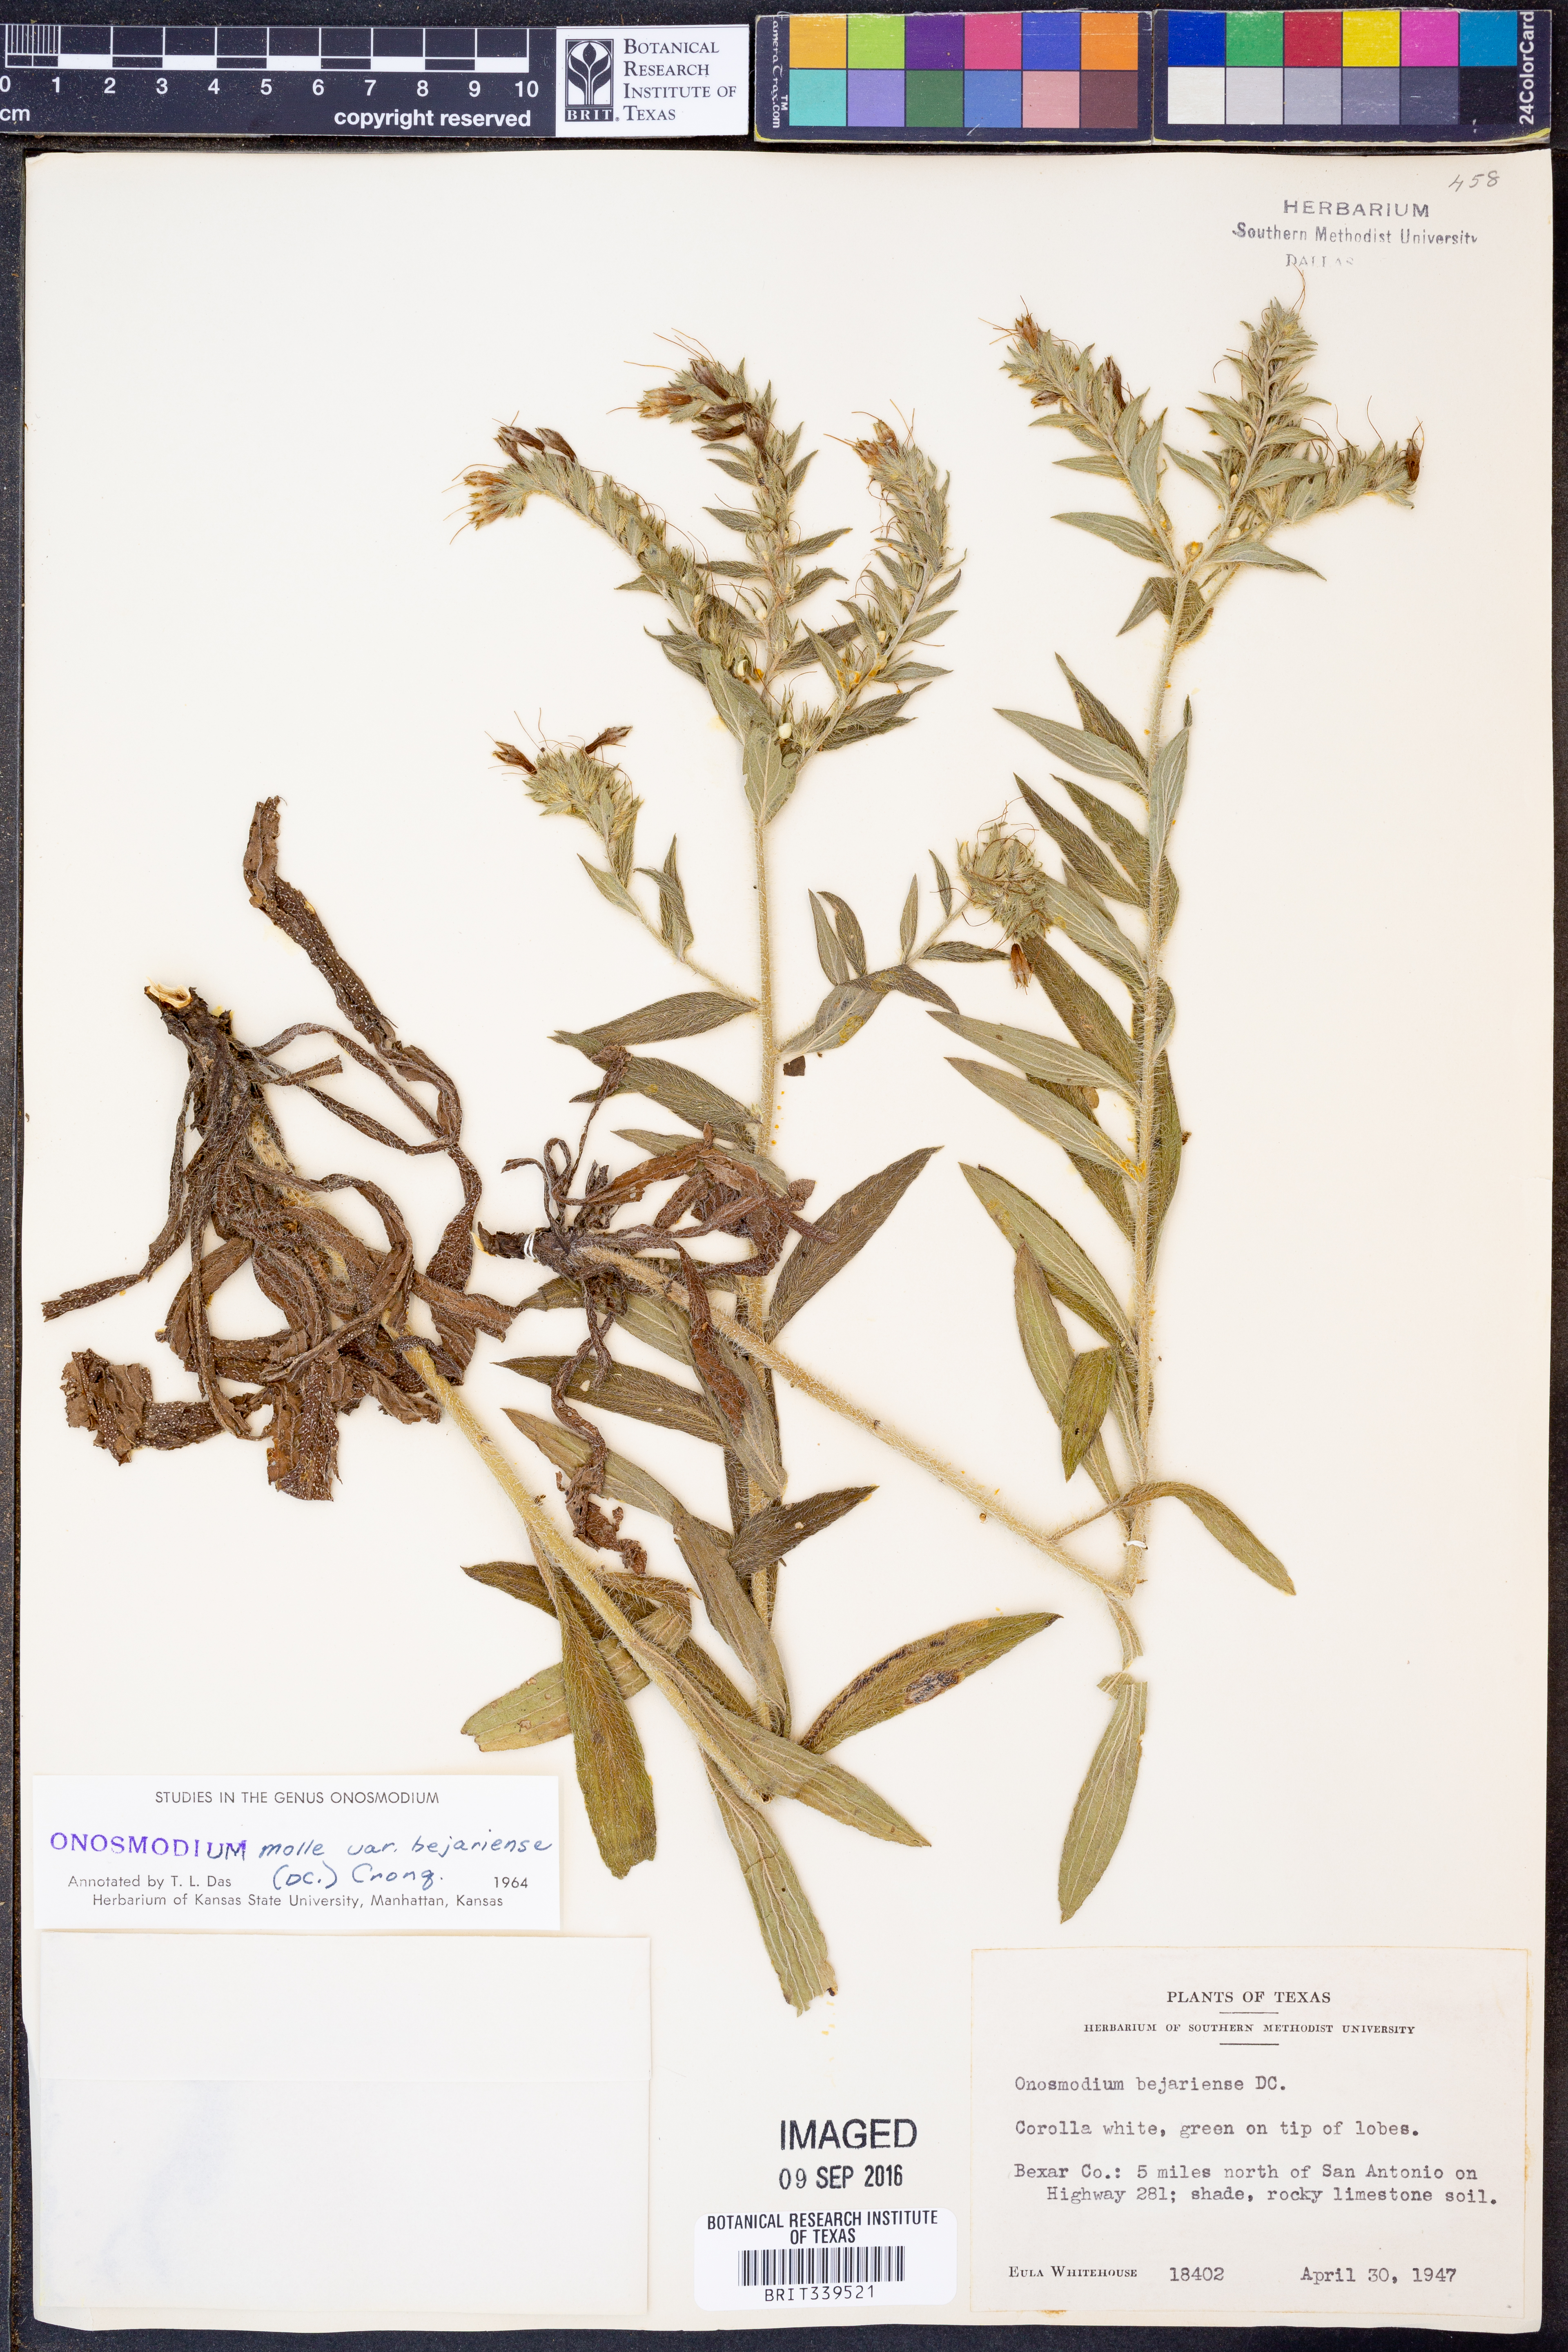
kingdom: Plantae
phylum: Tracheophyta
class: Magnoliopsida
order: Boraginales
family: Boraginaceae
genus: Lithospermum
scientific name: Lithospermum molle
